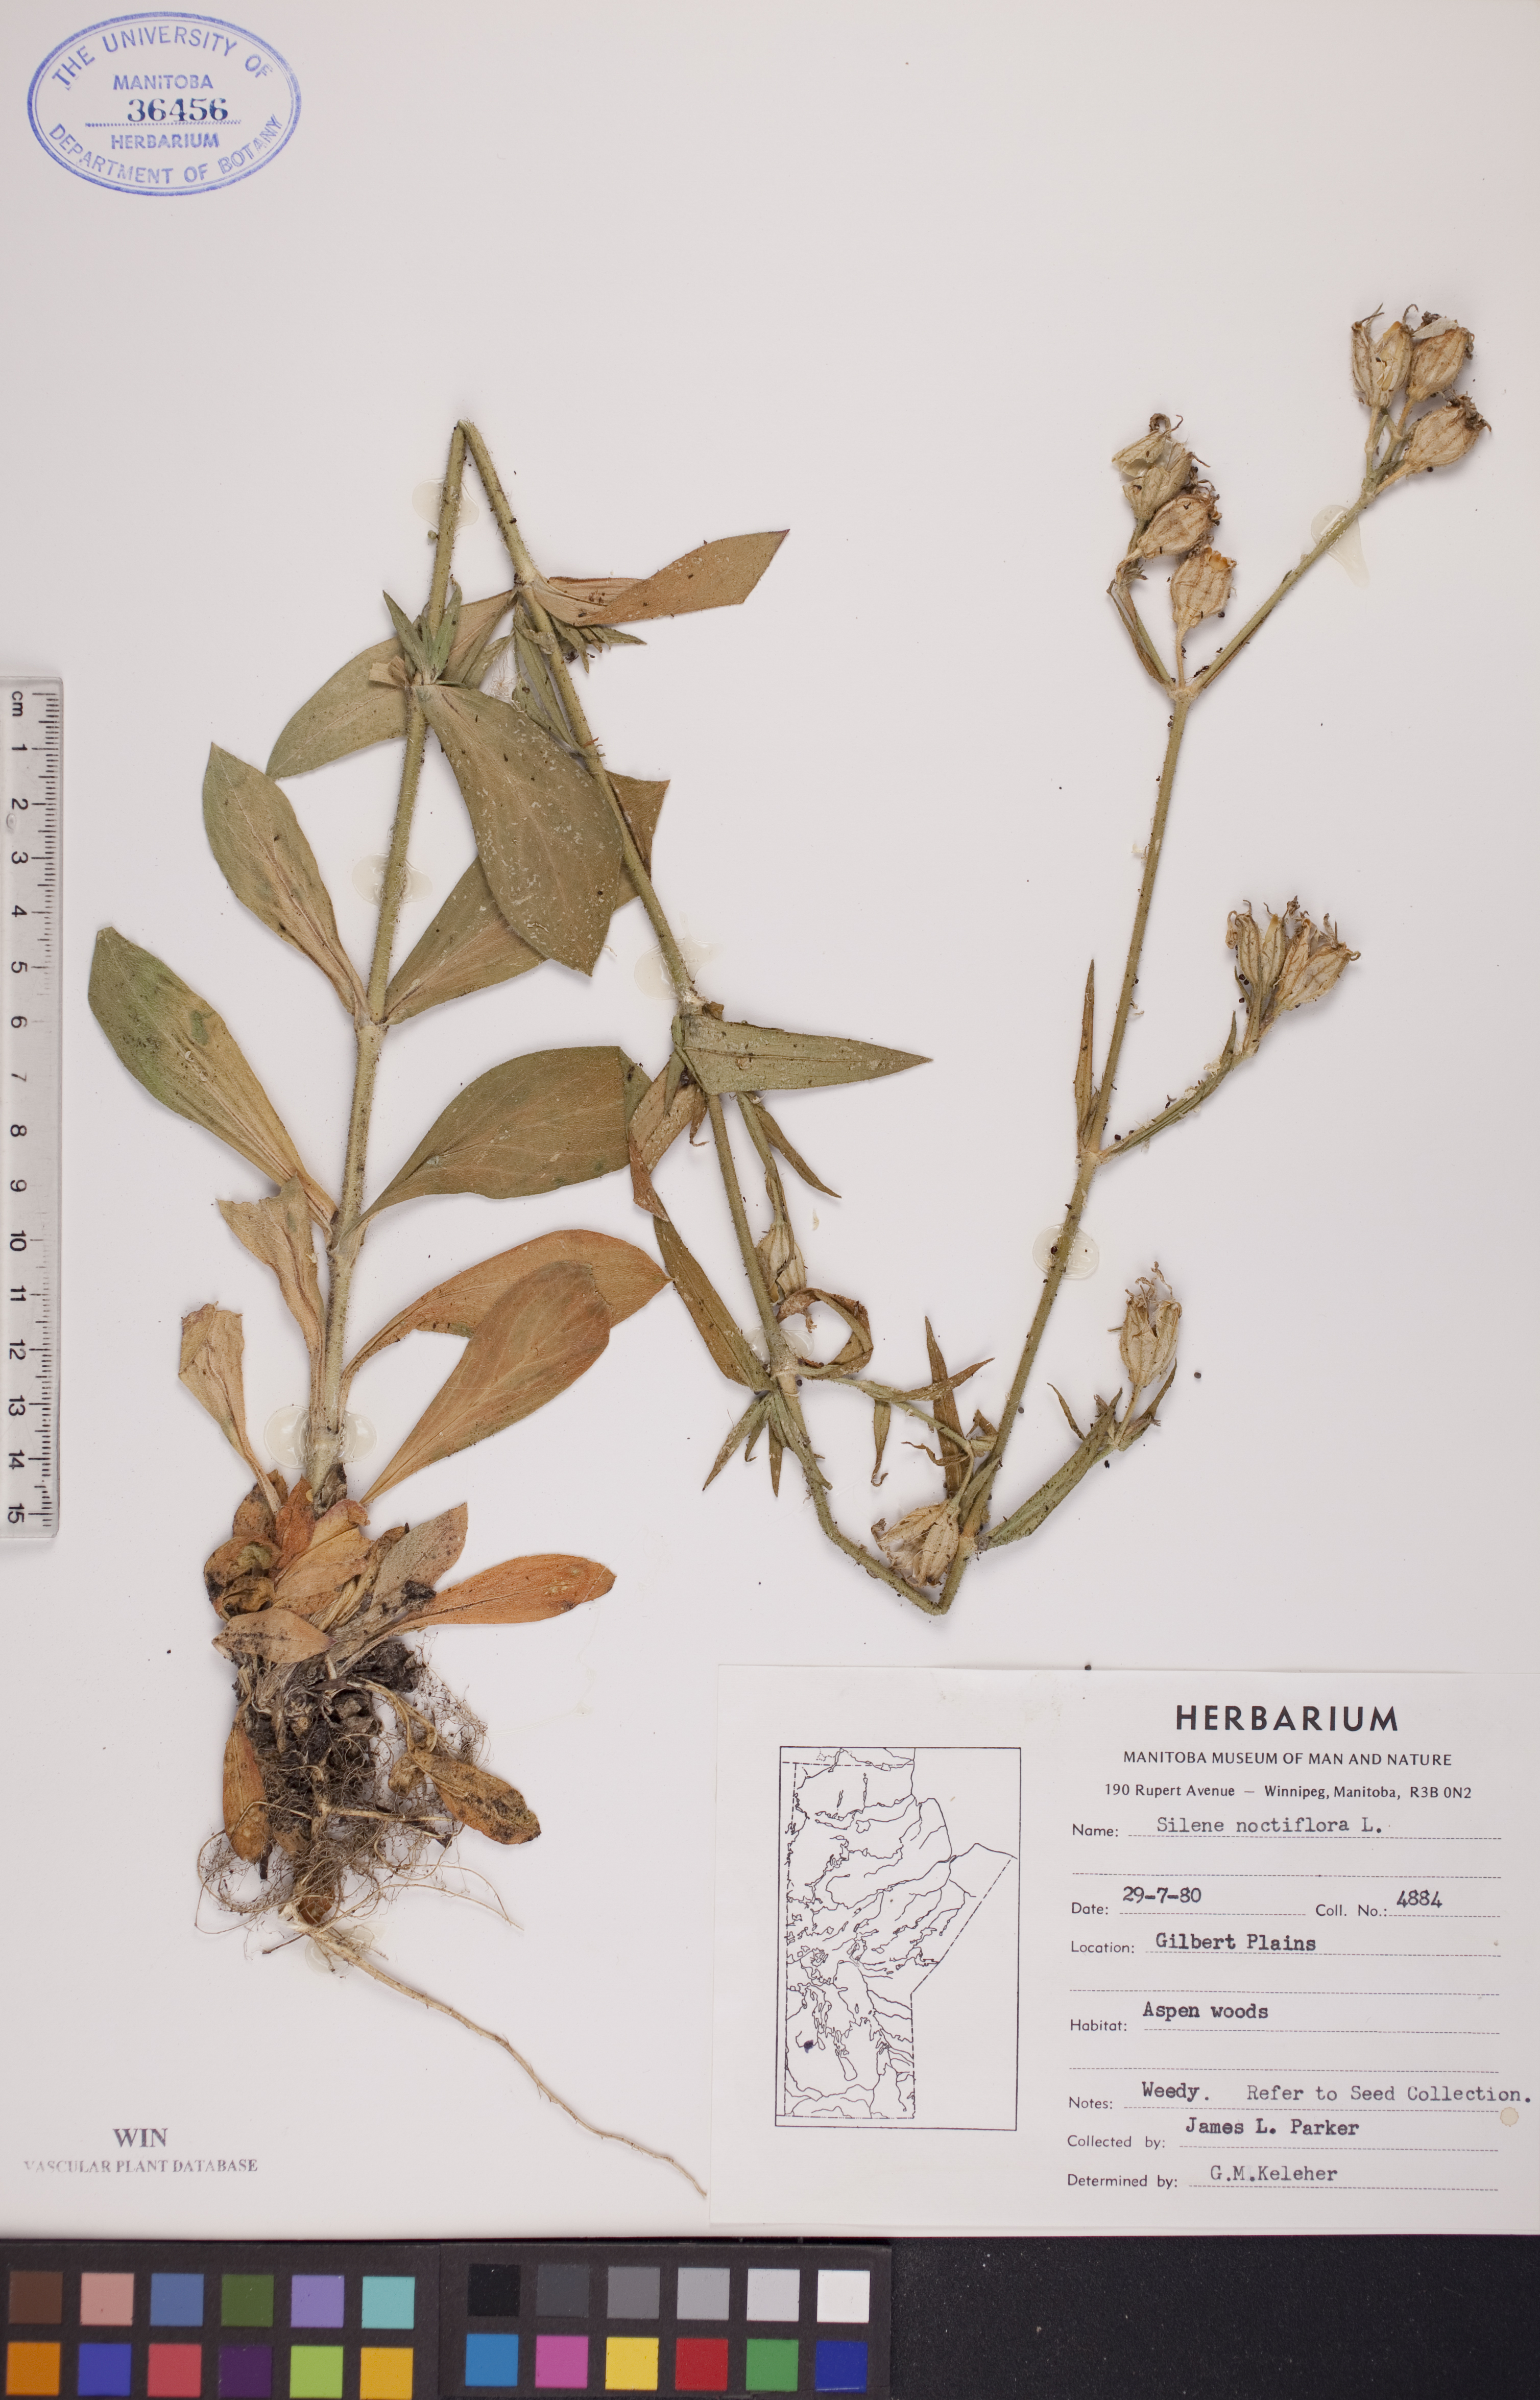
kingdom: Plantae
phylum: Tracheophyta
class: Magnoliopsida
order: Caryophyllales
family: Caryophyllaceae
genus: Silene
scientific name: Silene noctiflora
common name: Night-flowering catchfly
